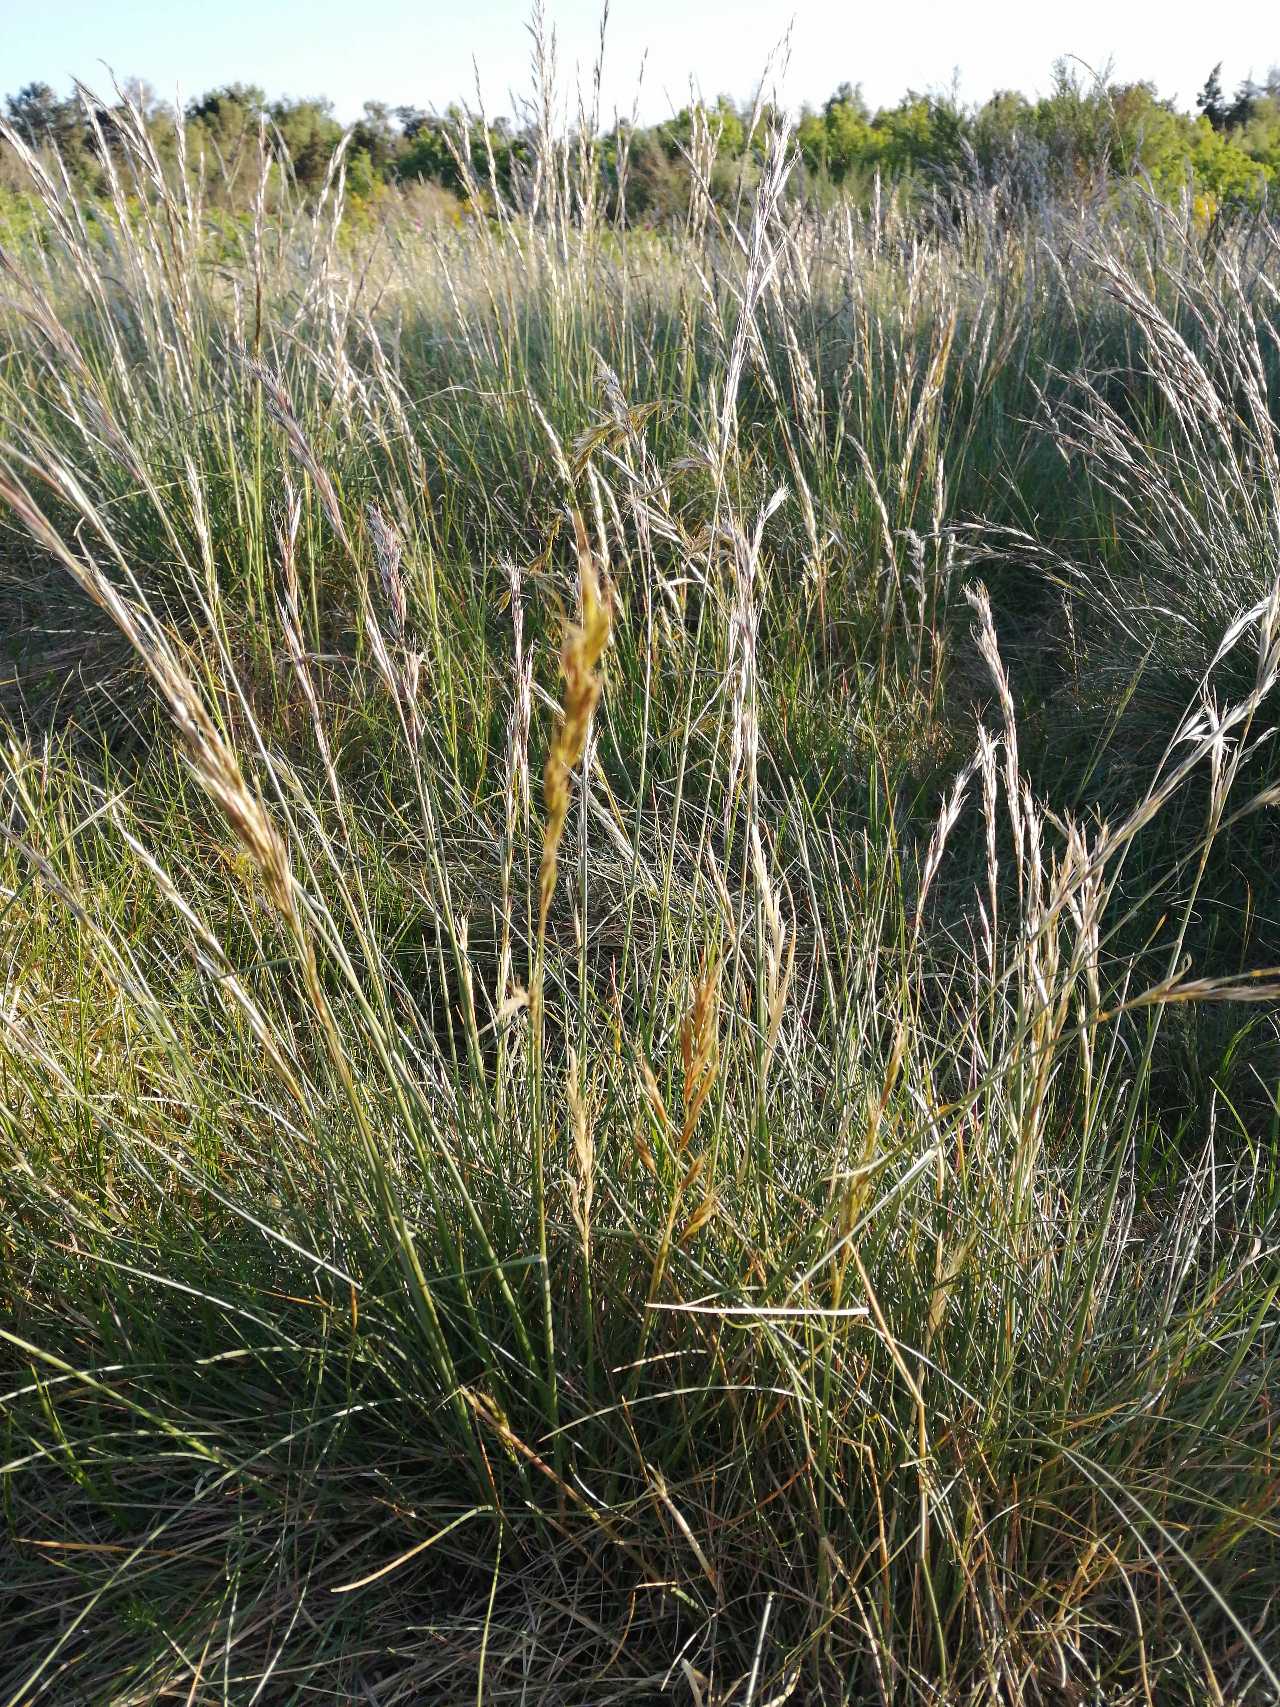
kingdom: Plantae
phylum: Tracheophyta
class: Liliopsida
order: Poales
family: Poaceae
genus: Helictochloa
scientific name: Helictochloa pratensis
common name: Eng-havre
